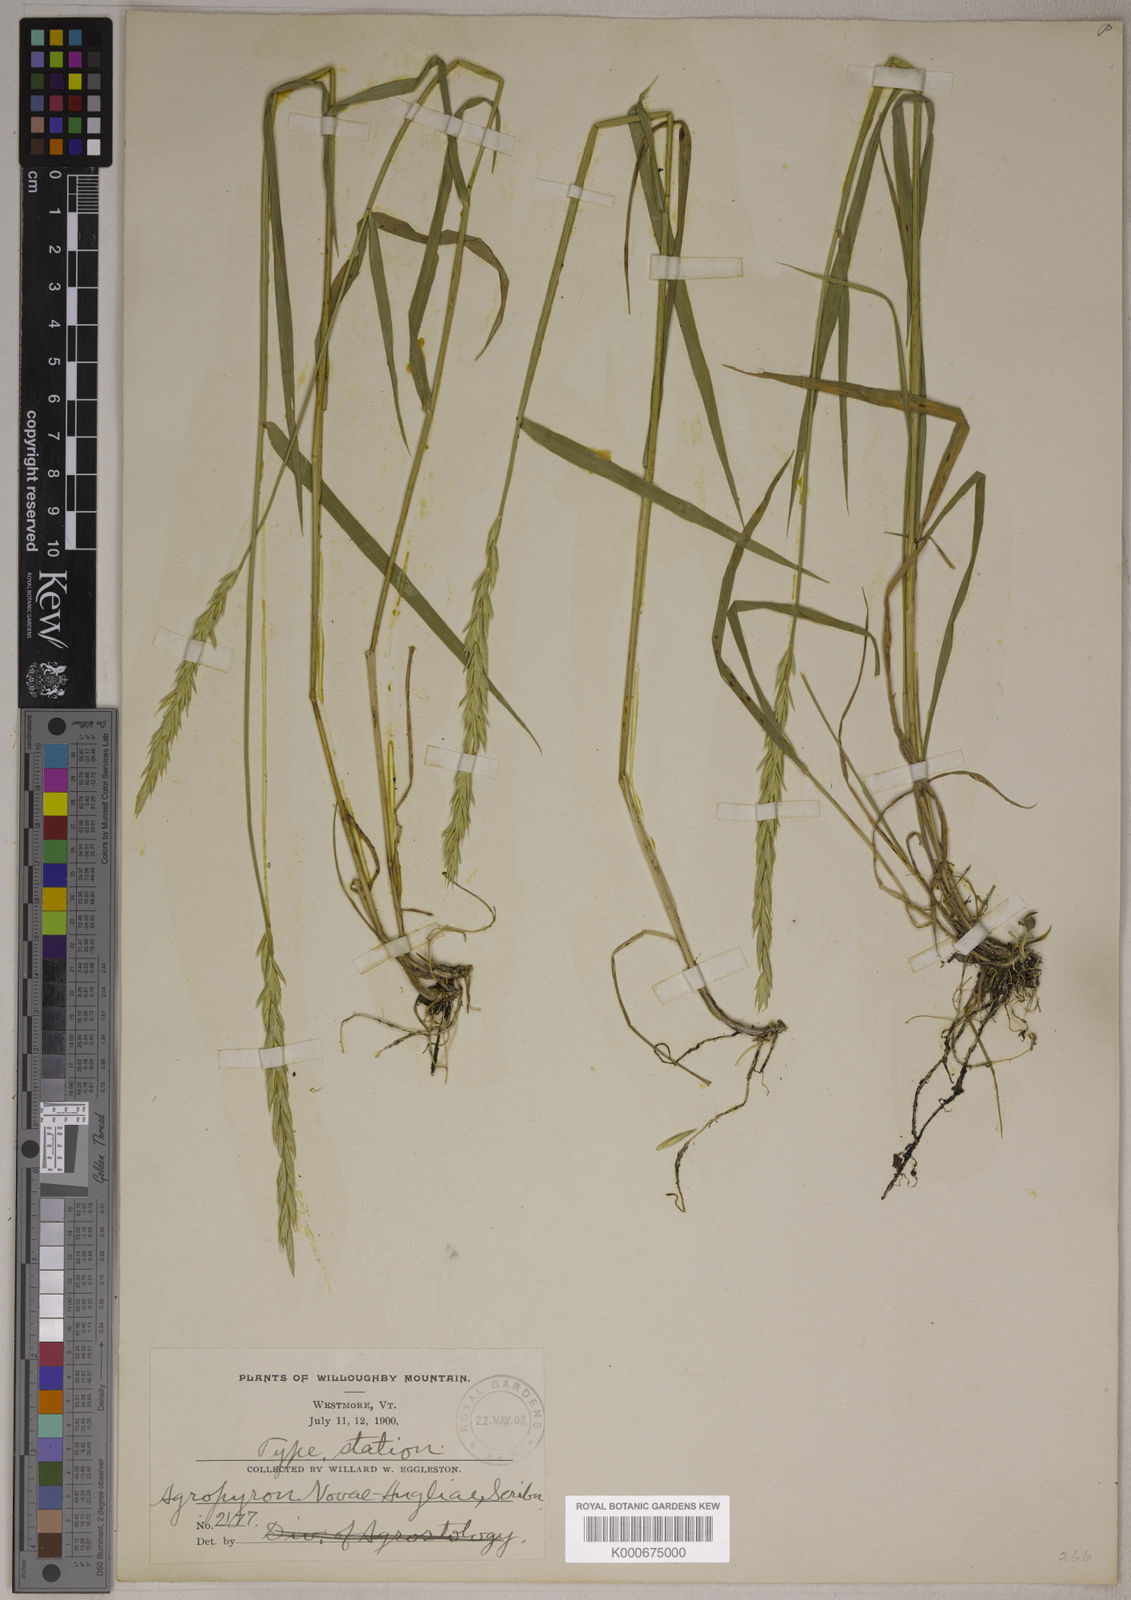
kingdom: Plantae
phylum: Tracheophyta
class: Liliopsida
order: Poales
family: Poaceae
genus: Elymus
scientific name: Elymus
